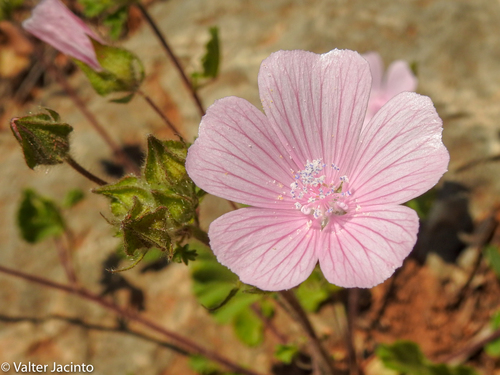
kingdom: Plantae
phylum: Tracheophyta
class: Magnoliopsida
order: Malvales
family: Malvaceae
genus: Malva
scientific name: Malva hispanica
